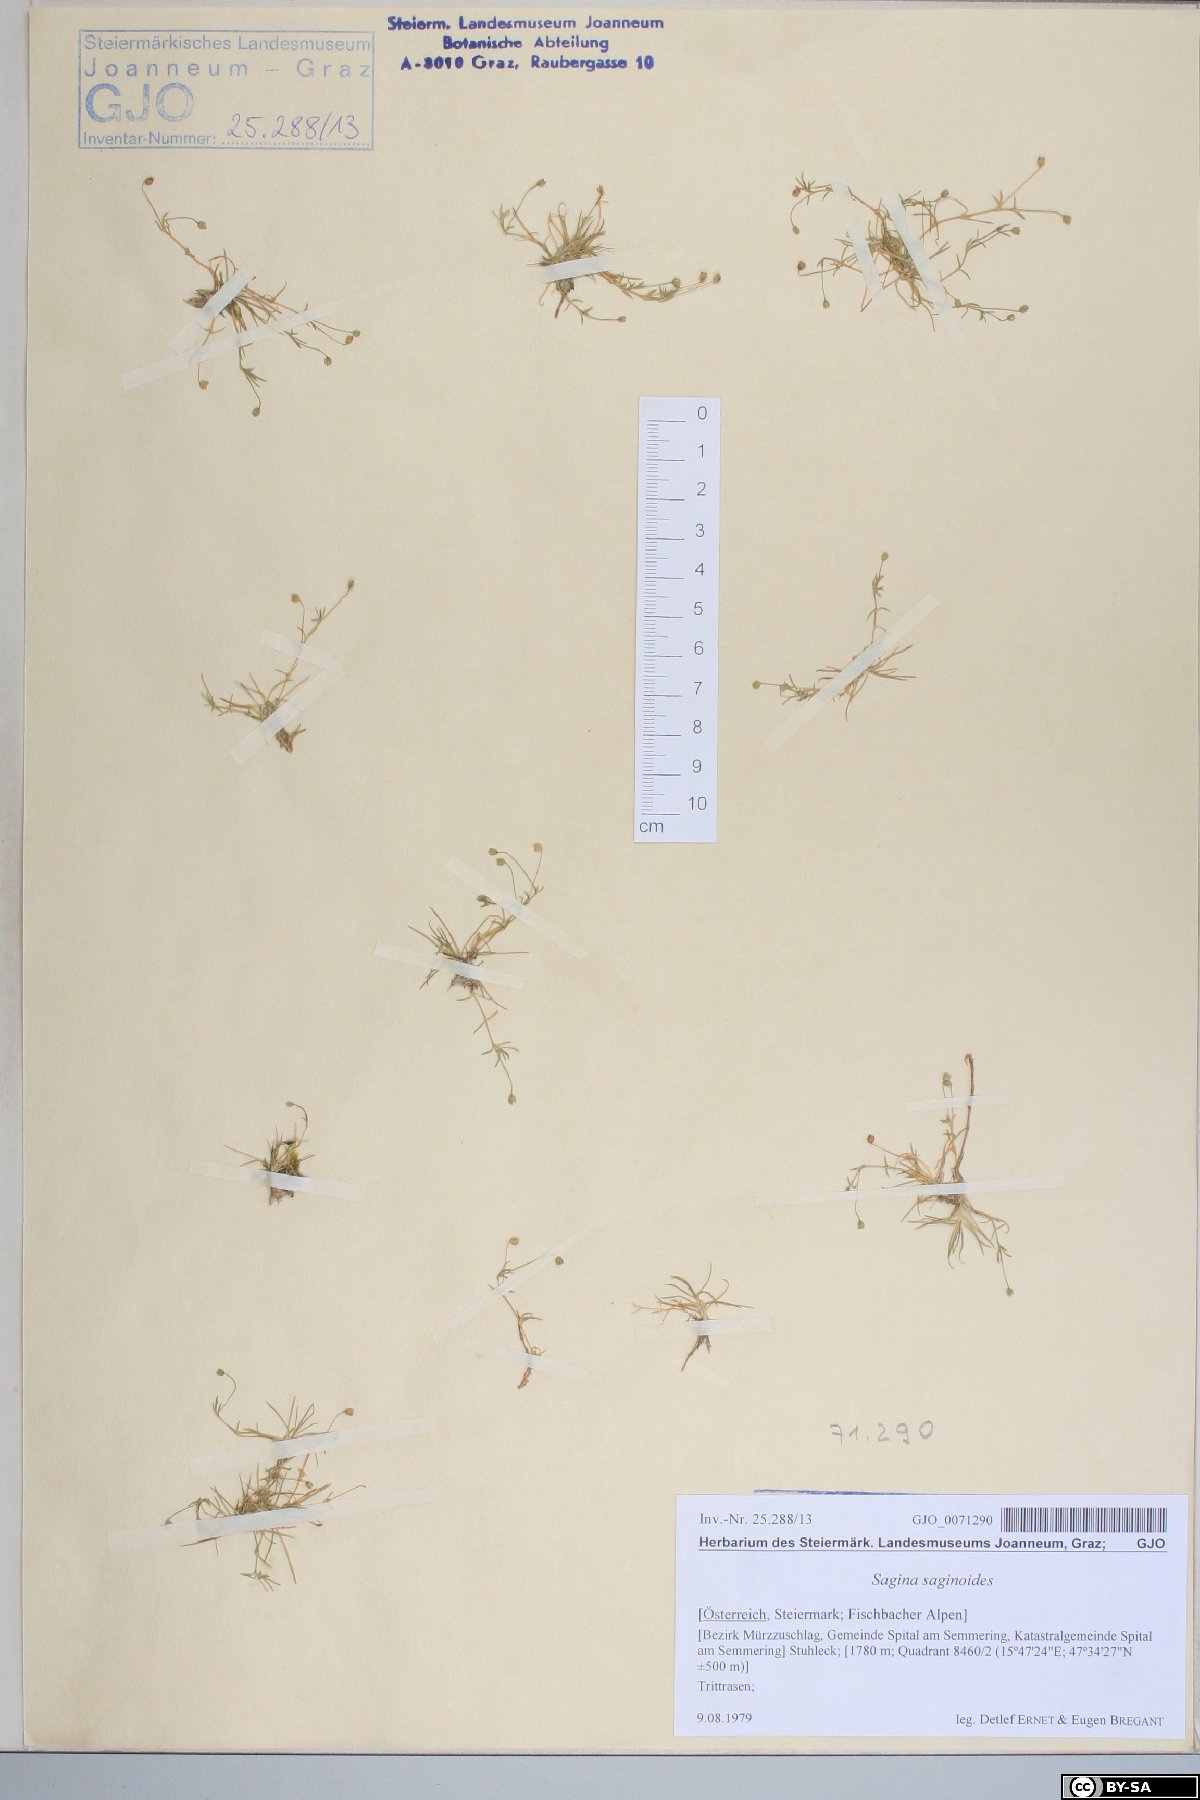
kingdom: Plantae
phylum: Tracheophyta
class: Magnoliopsida
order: Caryophyllales
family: Caryophyllaceae
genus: Sagina
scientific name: Sagina saginoides
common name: Alpine pearlwort
